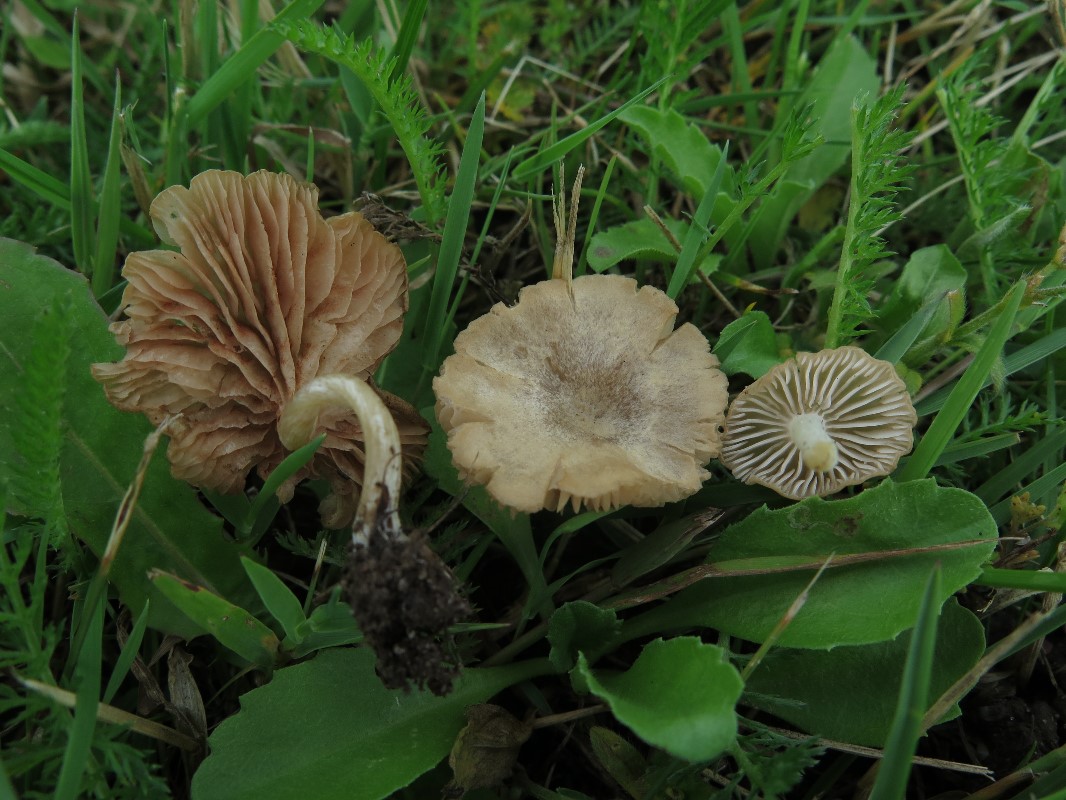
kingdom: Fungi
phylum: Basidiomycota
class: Agaricomycetes
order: Agaricales
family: Entolomataceae
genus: Entoloma
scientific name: Entoloma neglectum
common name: bleg rødblad
